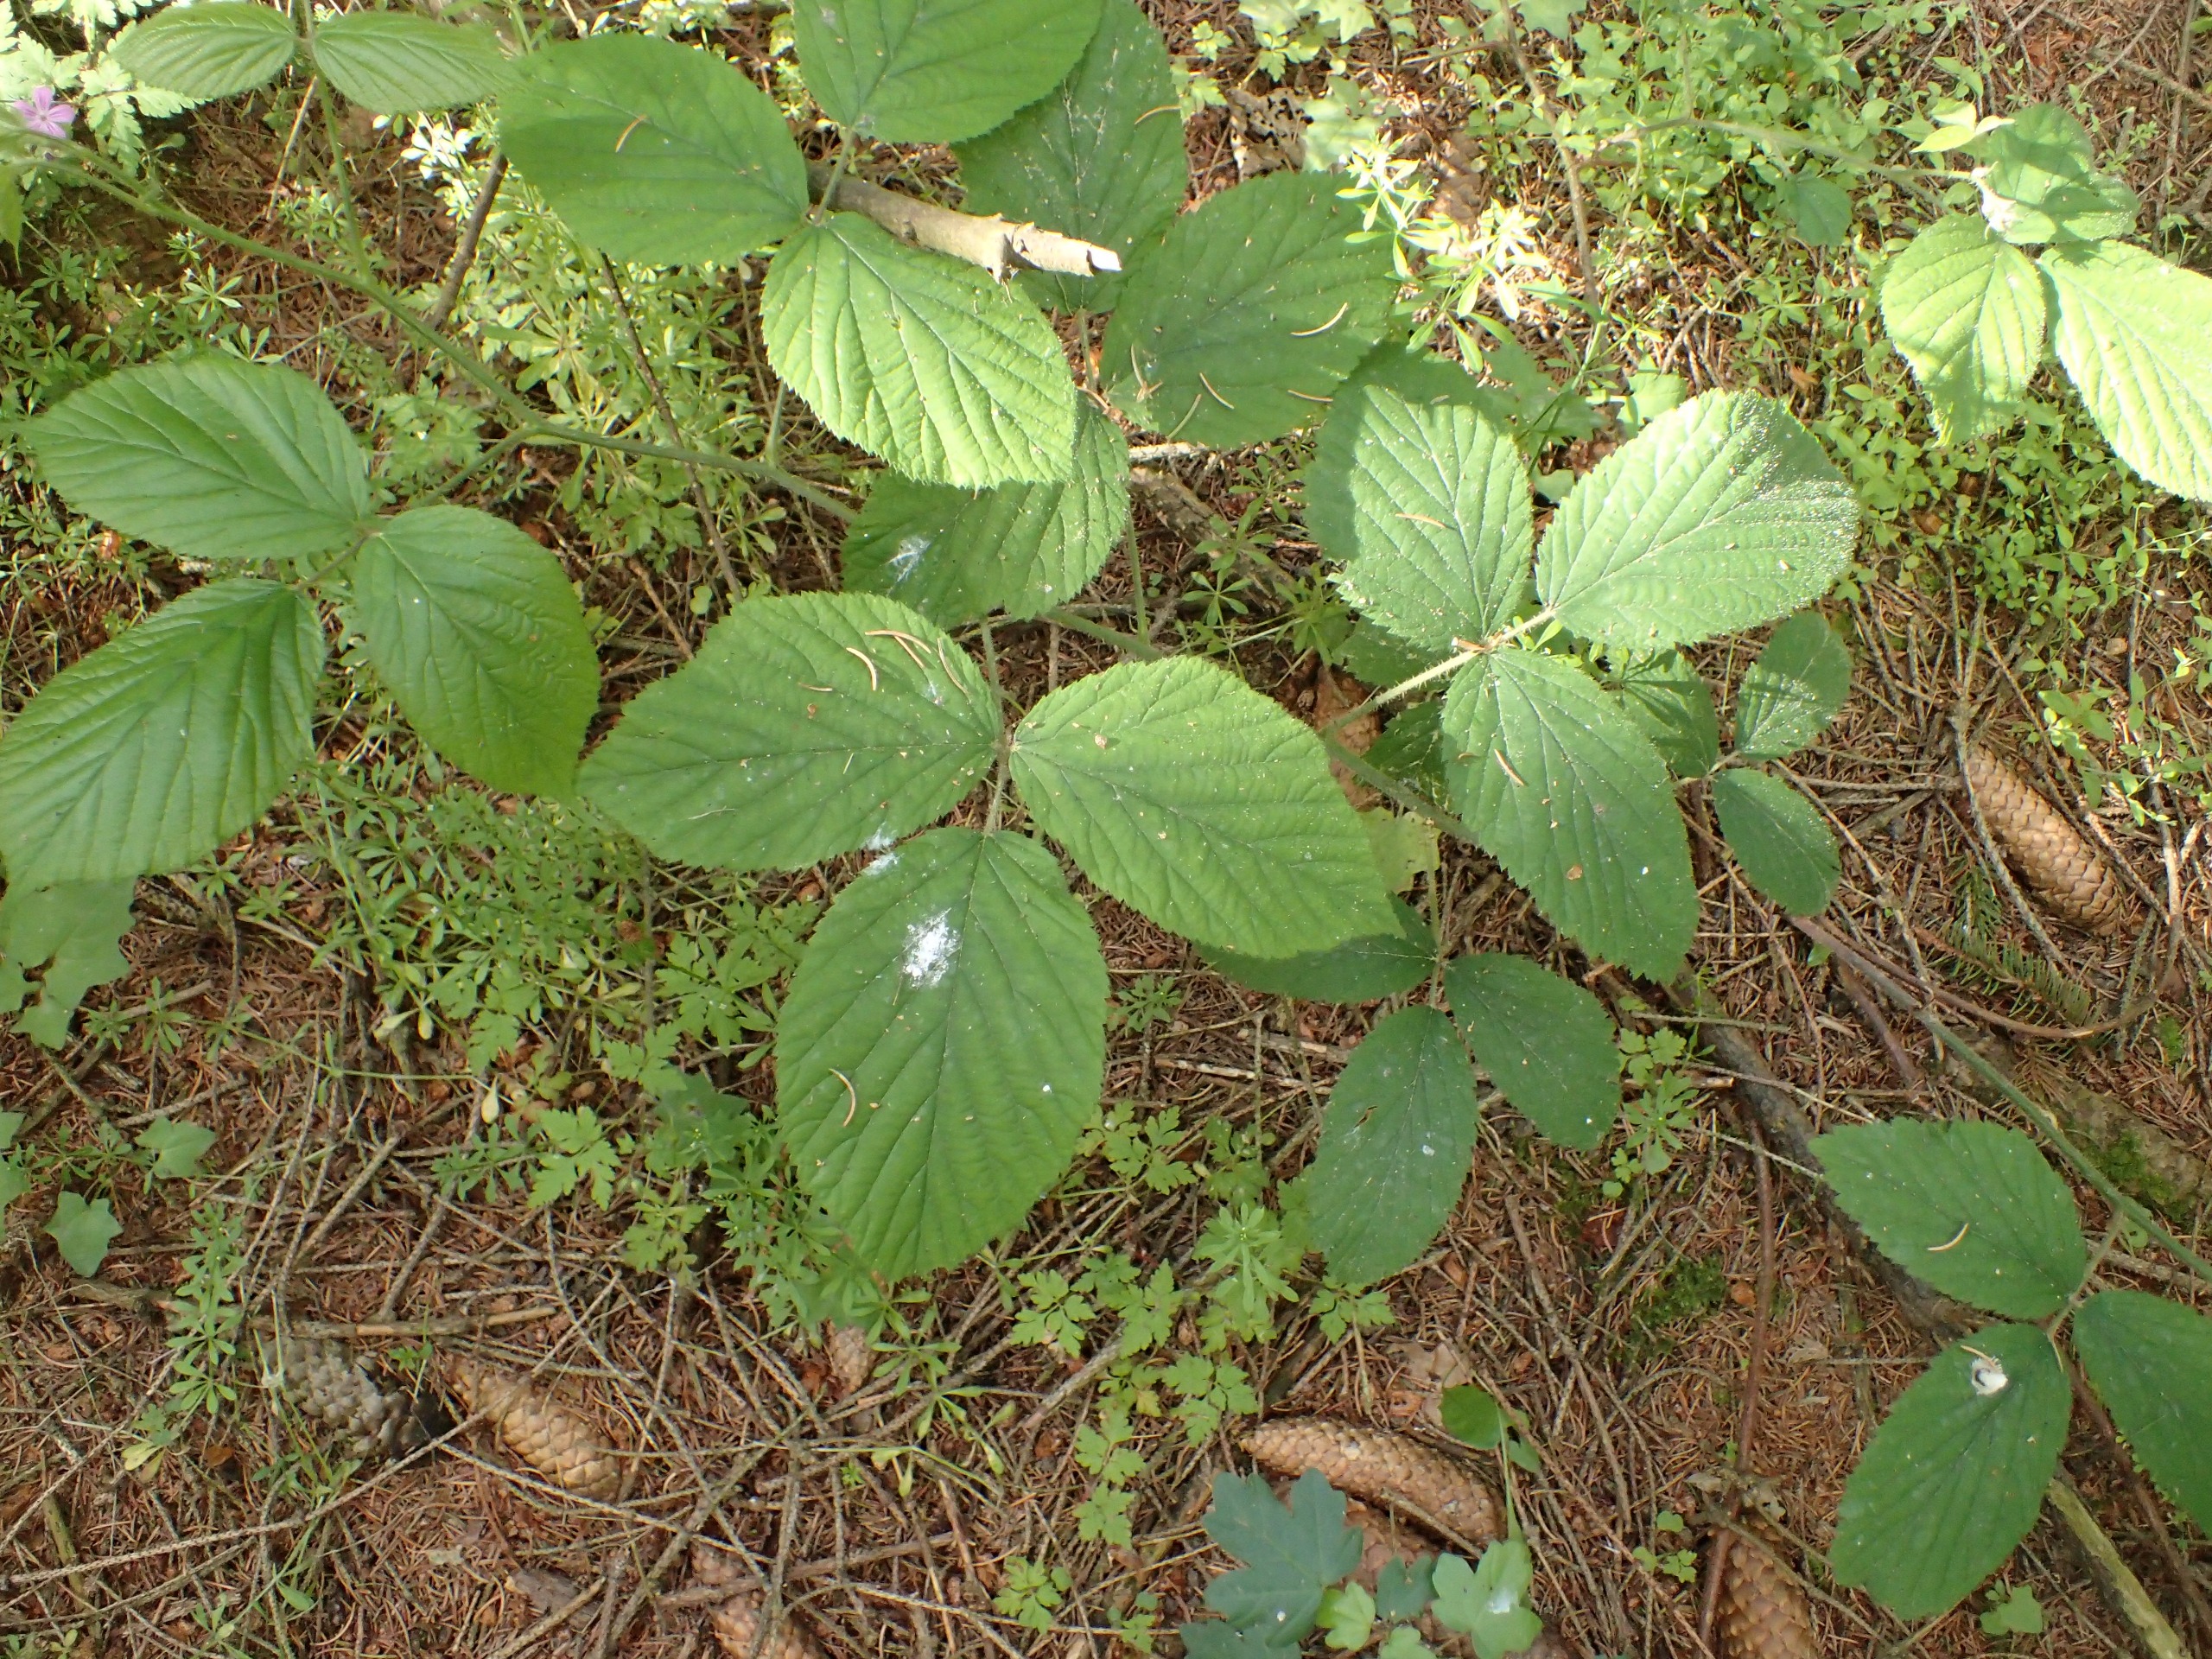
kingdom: Plantae
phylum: Tracheophyta
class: Magnoliopsida
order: Rosales
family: Rosaceae
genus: Rubus
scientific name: Rubus nigricans
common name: Trebladet brombær
